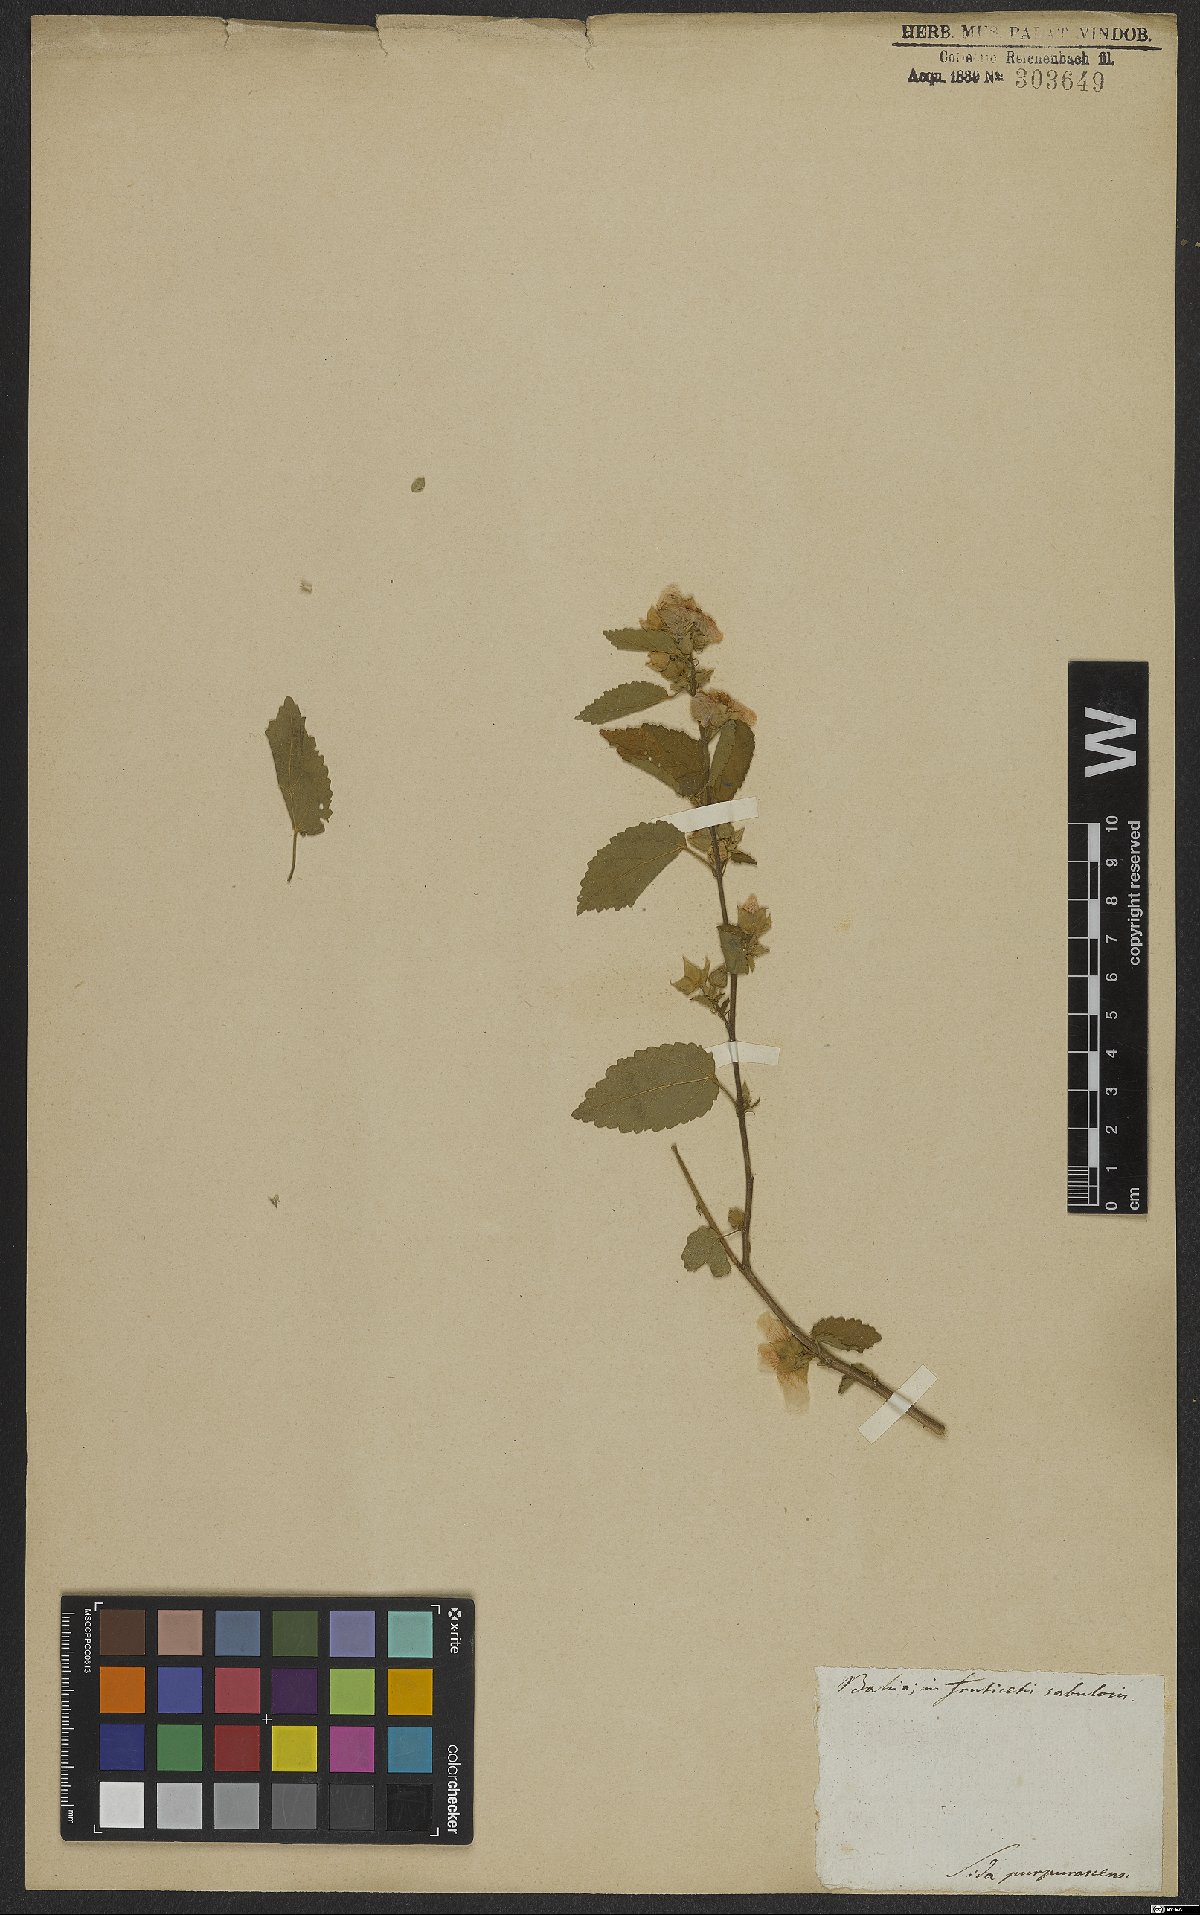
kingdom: Plantae
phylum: Tracheophyta
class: Magnoliopsida
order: Malvales
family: Malvaceae
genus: Bakeridesia
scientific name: Bakeridesia esculenta
